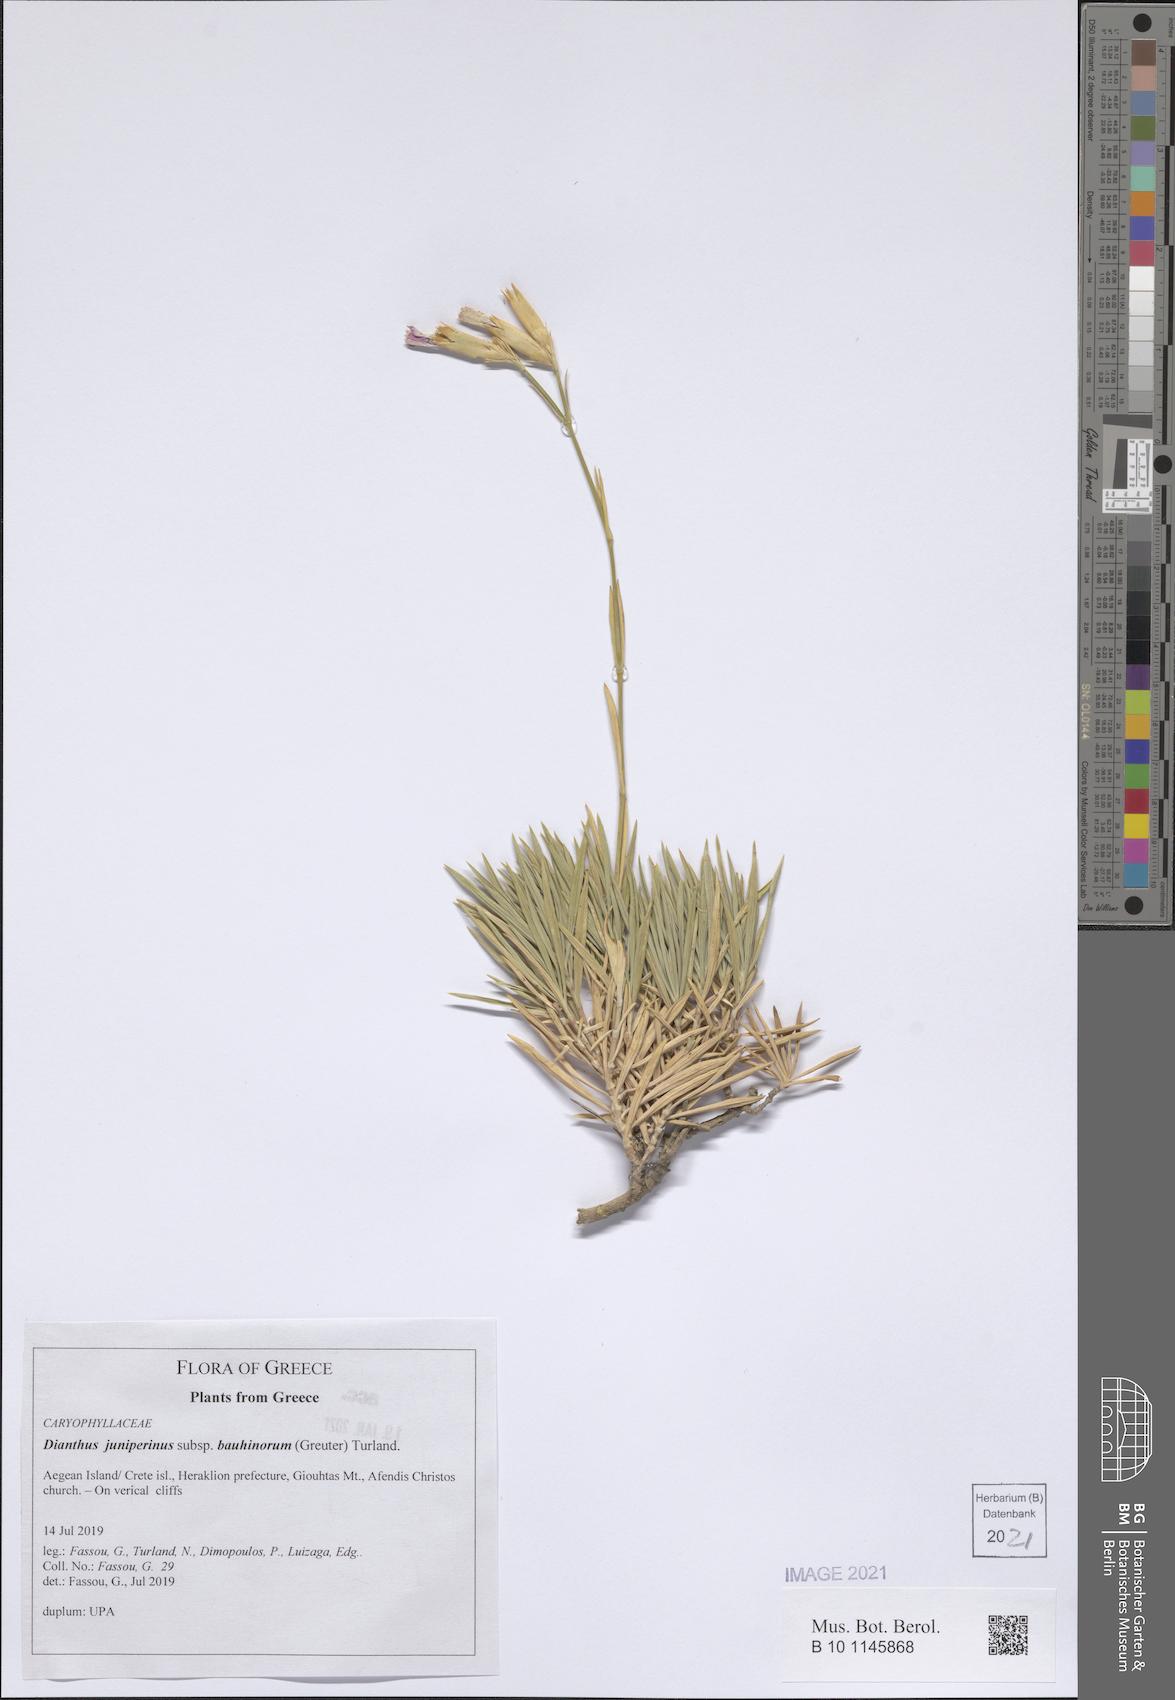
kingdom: Plantae
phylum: Tracheophyta
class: Magnoliopsida
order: Caryophyllales
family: Caryophyllaceae
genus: Dianthus
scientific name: Dianthus juniperinus
